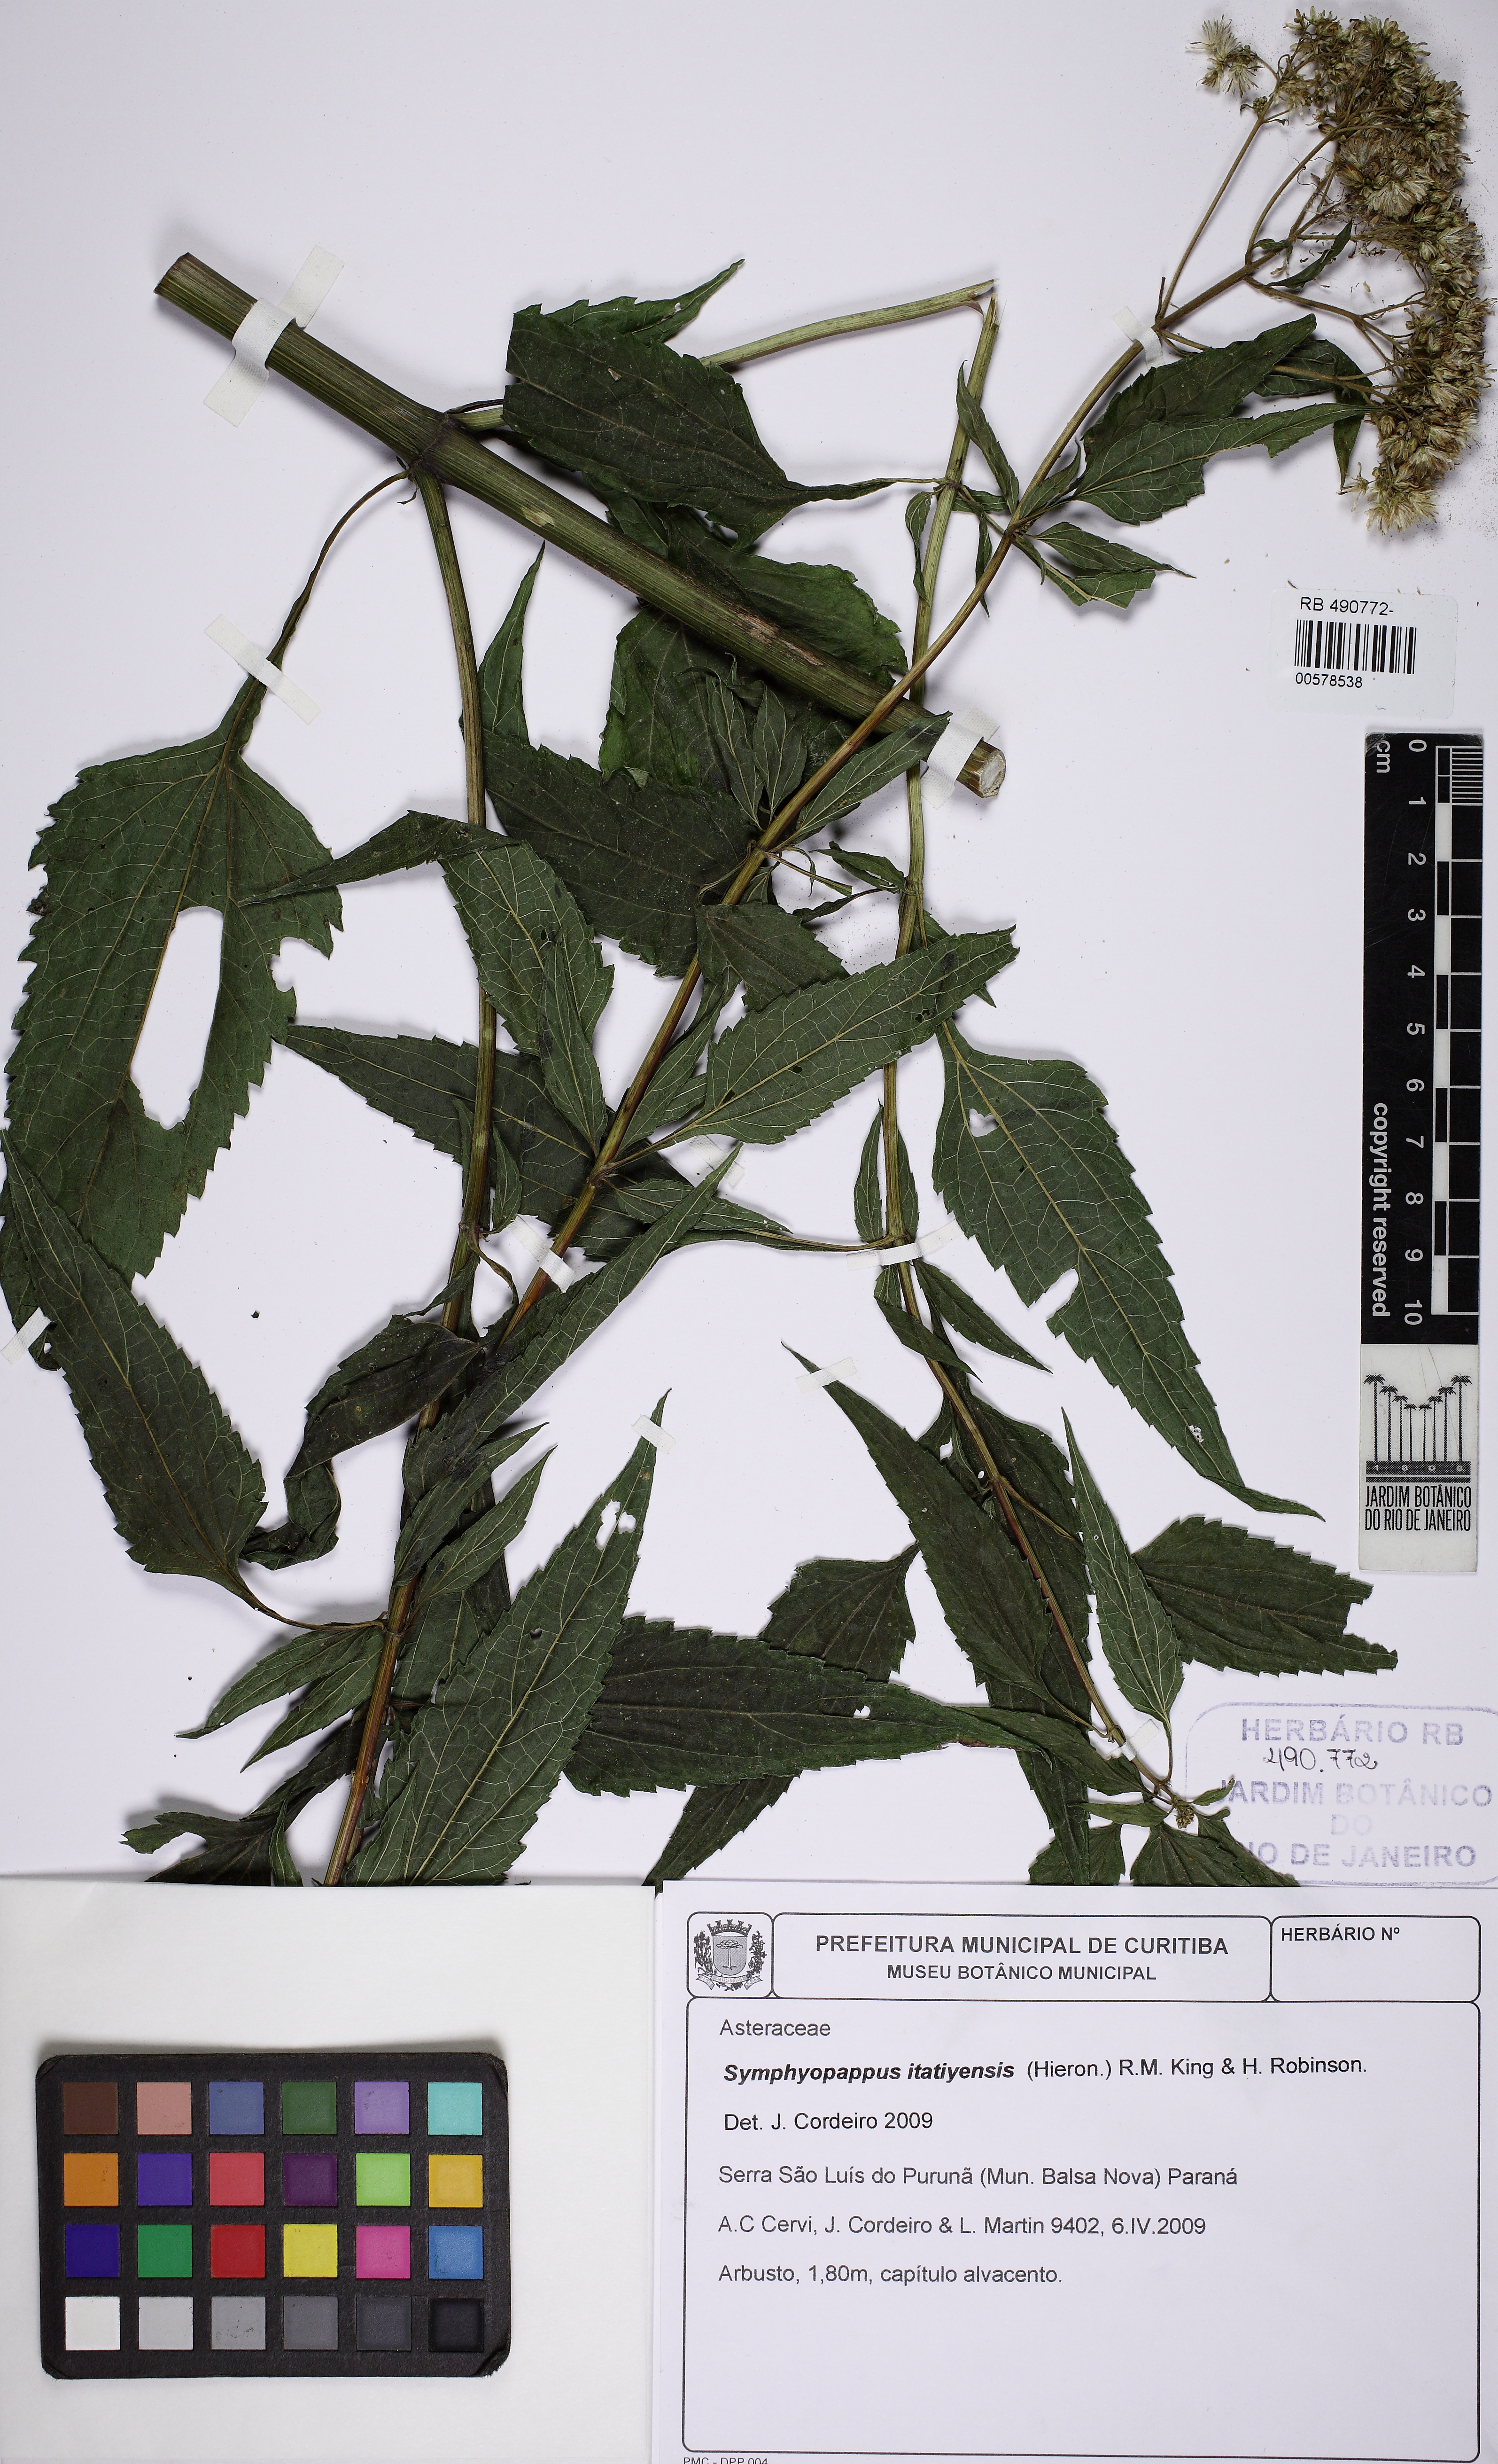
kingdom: Plantae
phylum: Tracheophyta
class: Magnoliopsida
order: Asterales
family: Asteraceae
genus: Austroeupatorium
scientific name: Austroeupatorium inulaefolium
